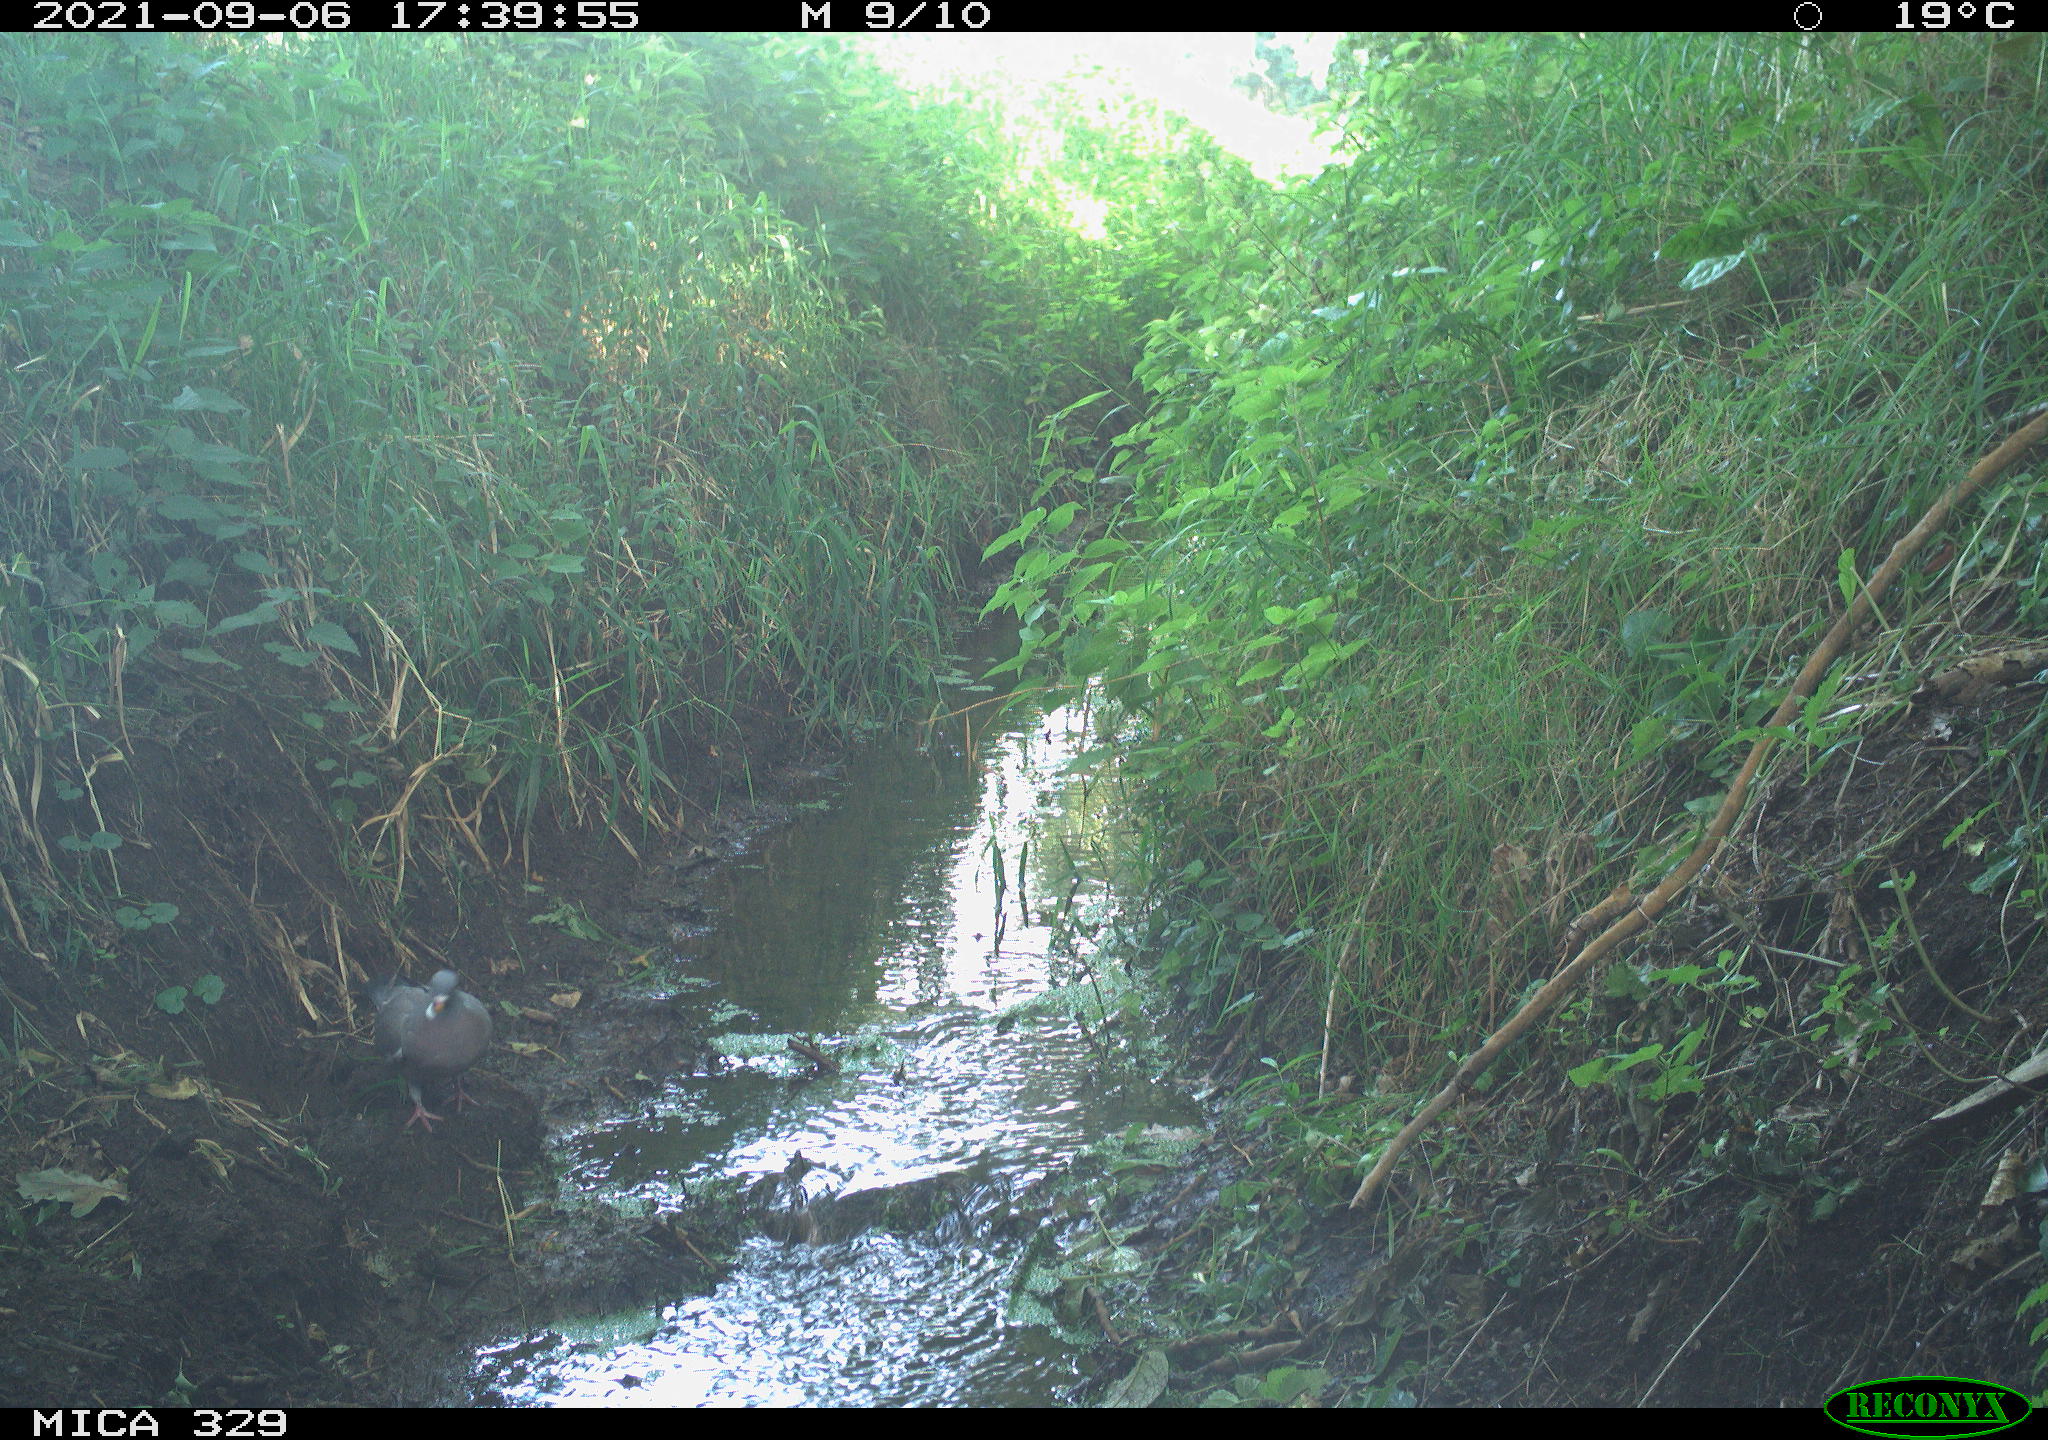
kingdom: Animalia
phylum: Chordata
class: Aves
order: Columbiformes
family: Columbidae
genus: Columba
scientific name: Columba palumbus
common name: Common wood pigeon
